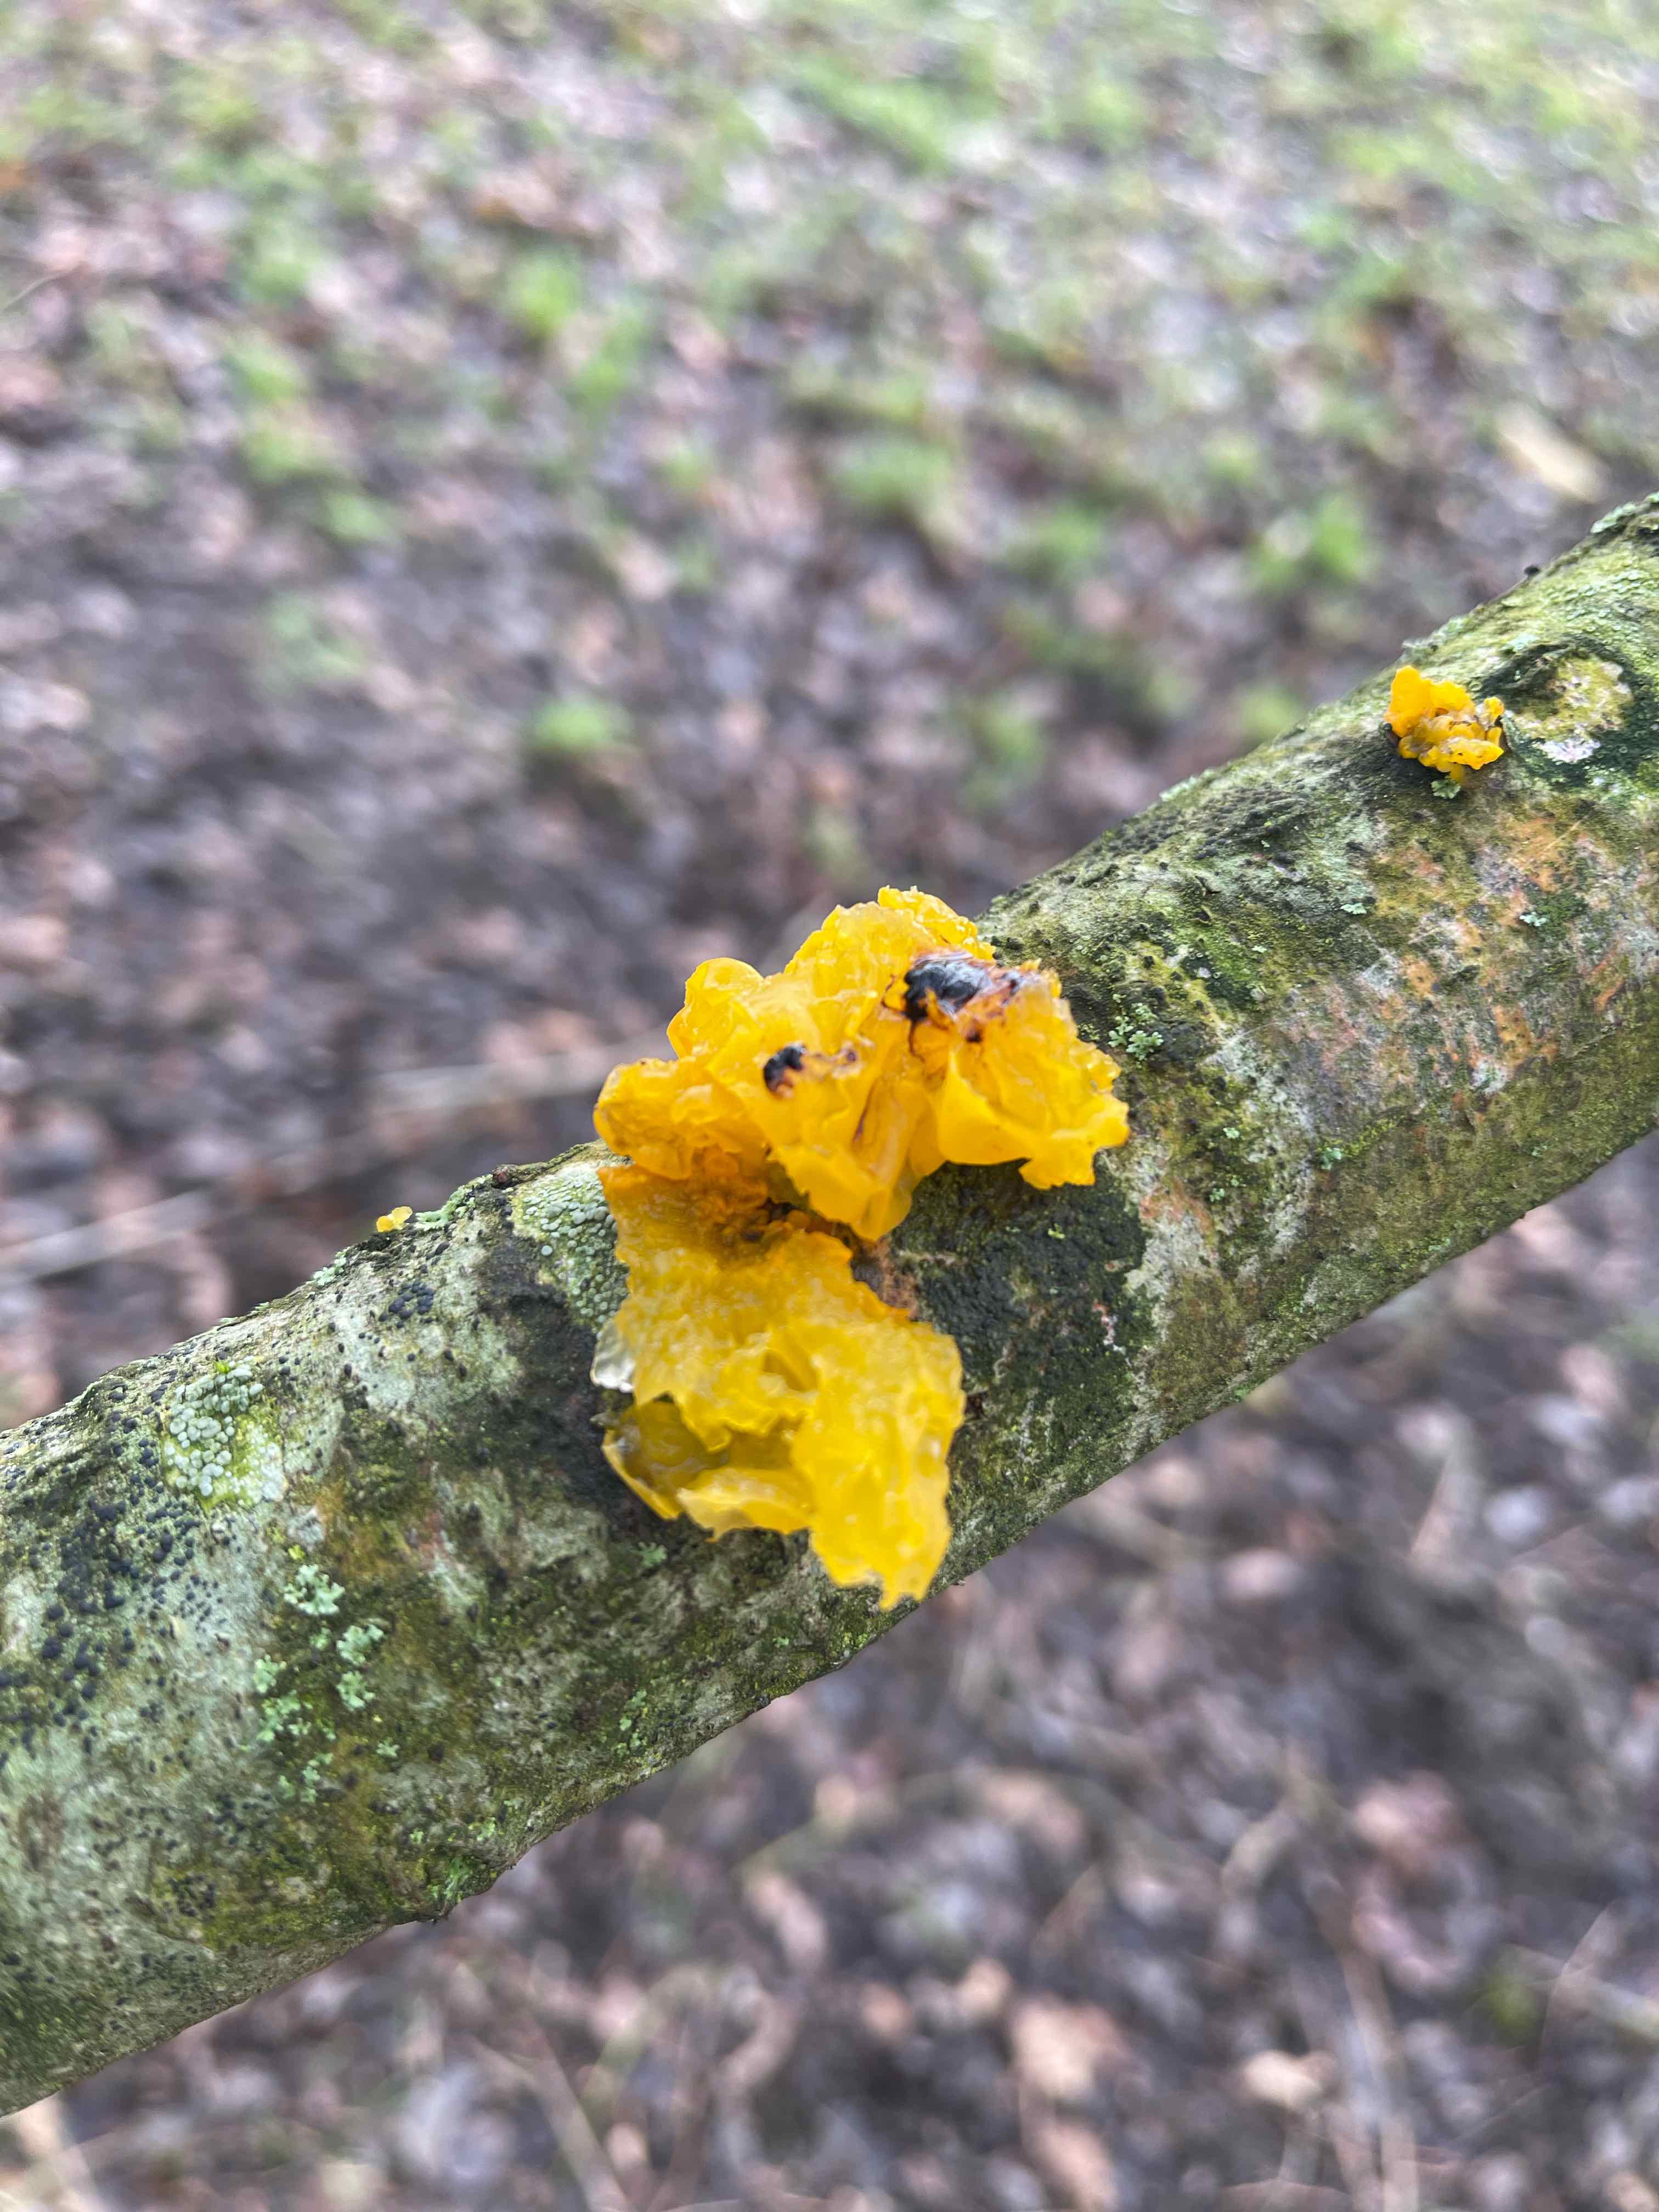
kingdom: Fungi
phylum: Basidiomycota
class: Tremellomycetes
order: Tremellales
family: Tremellaceae
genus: Tremella
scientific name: Tremella mesenterica
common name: gul bævresvamp
